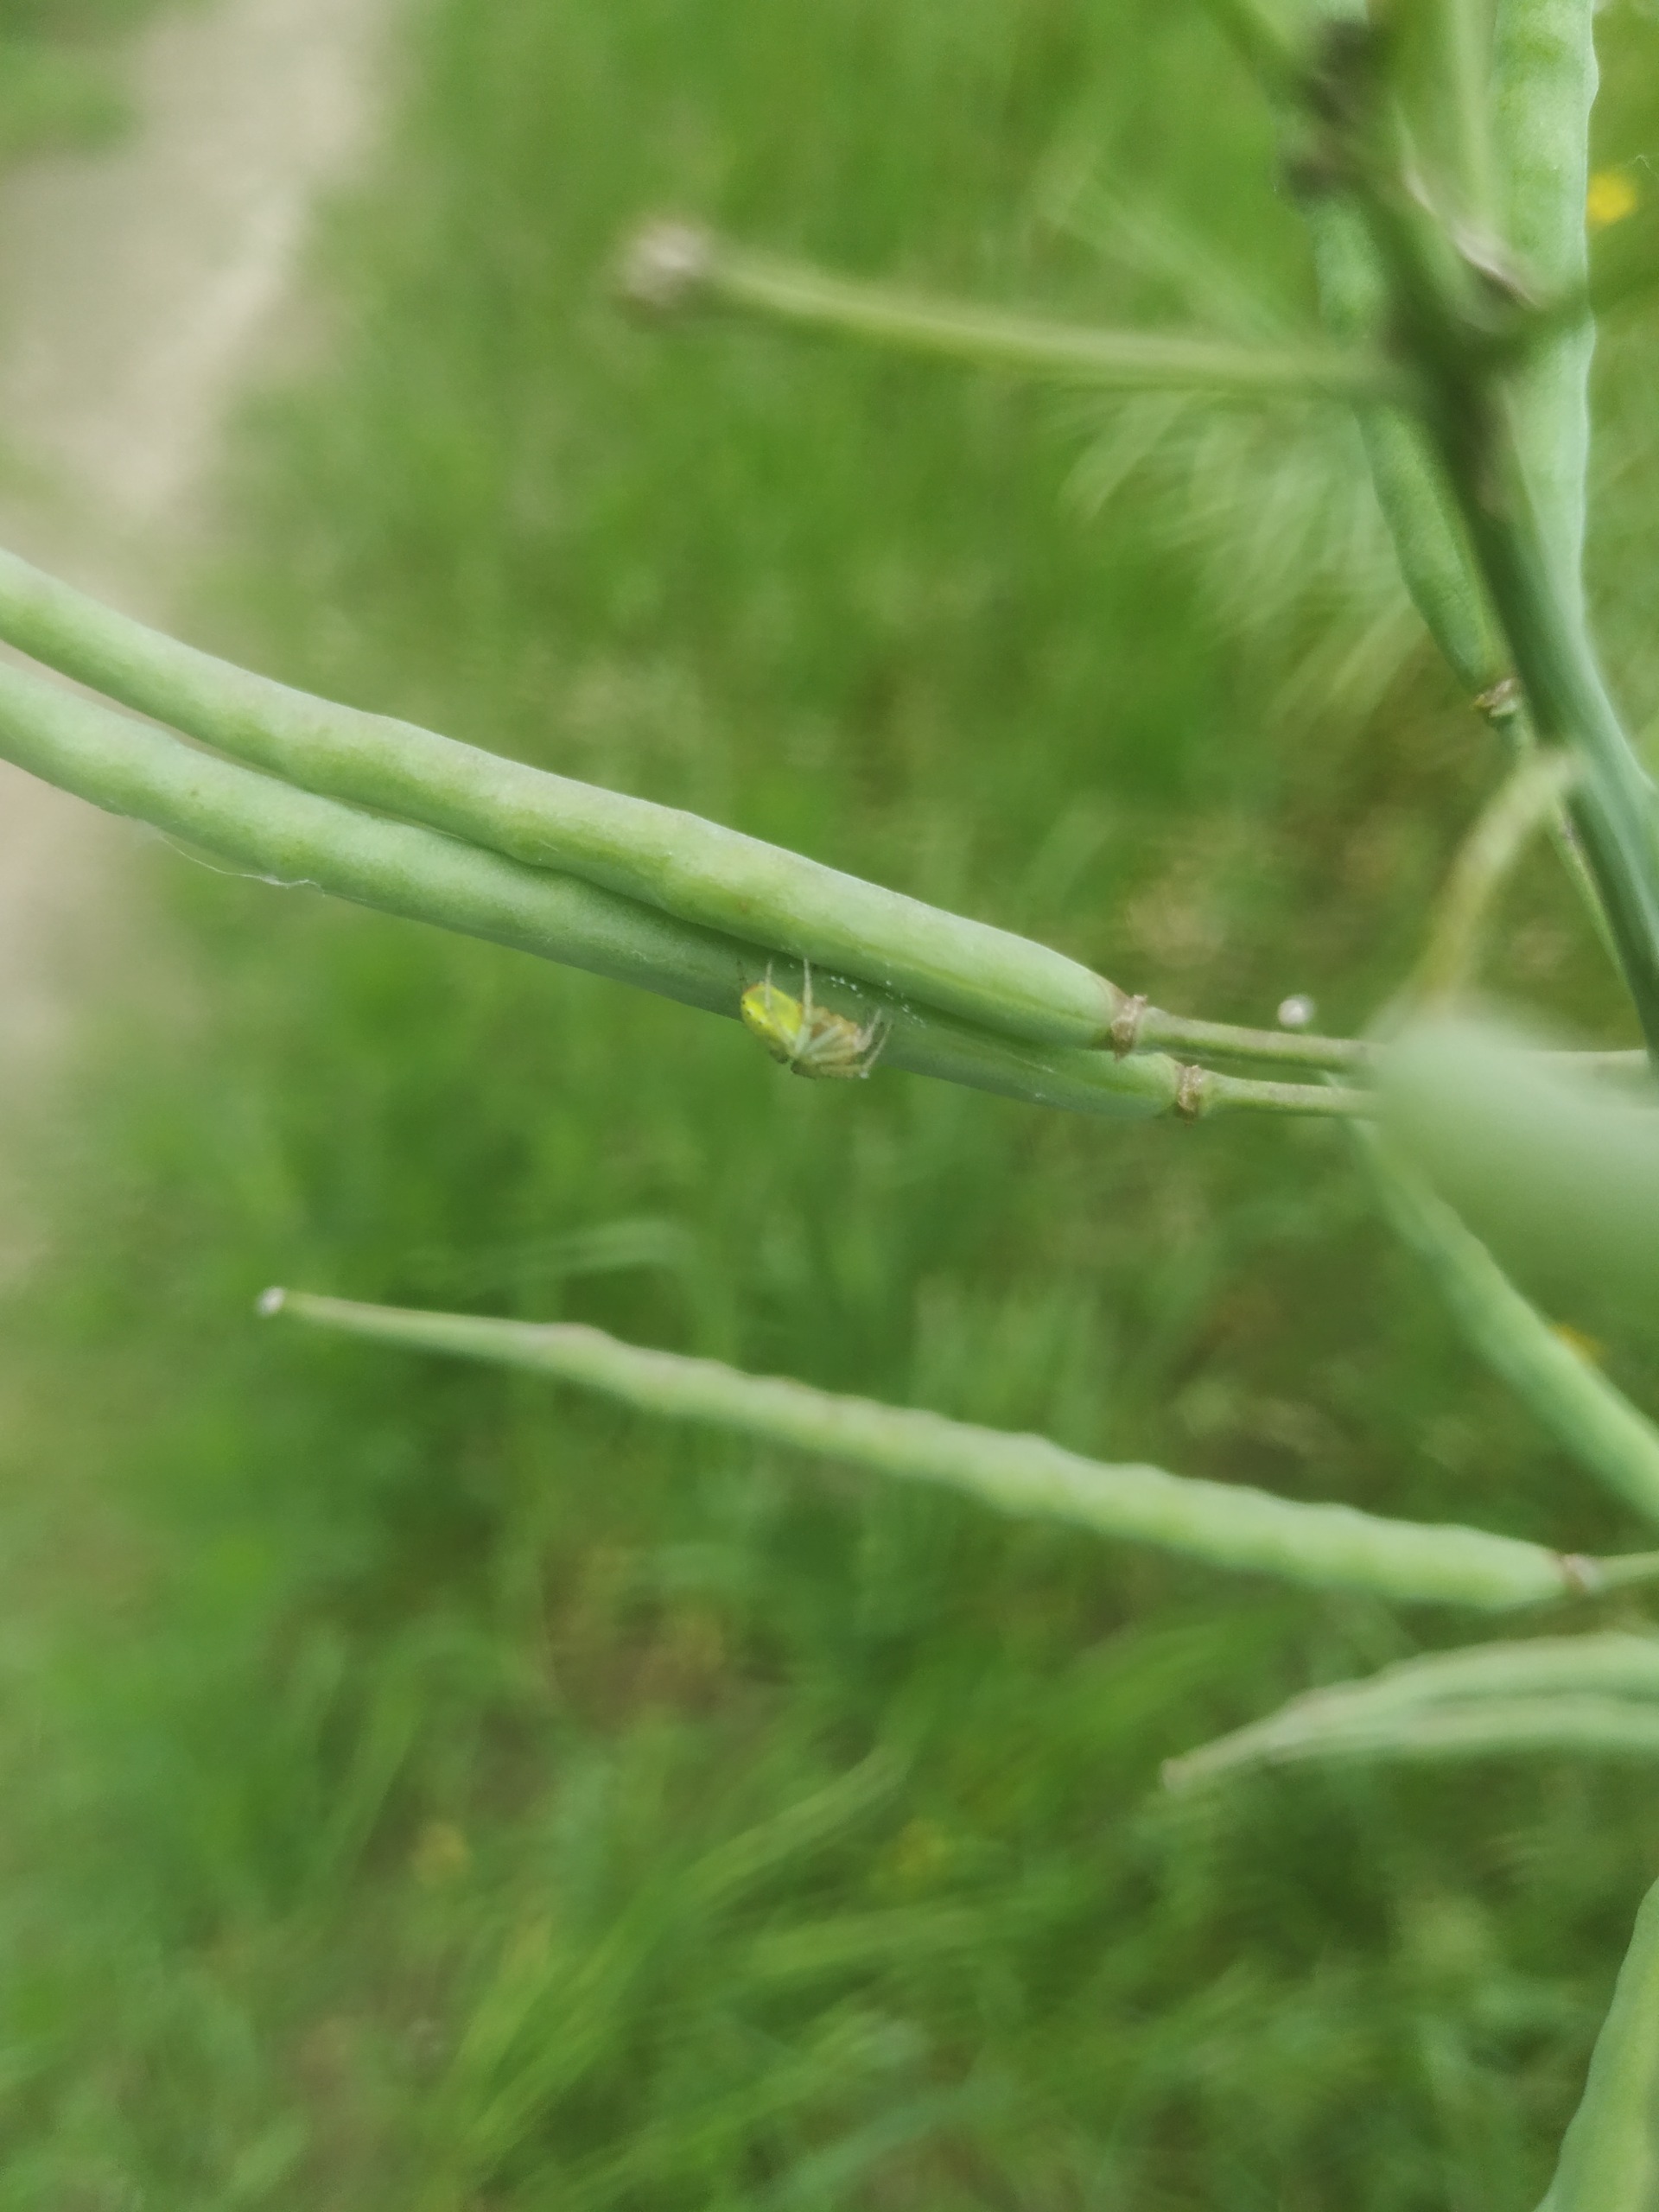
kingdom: Animalia
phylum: Arthropoda
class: Arachnida
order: Araneae
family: Araneidae
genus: Araniella
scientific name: Araniella
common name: Agurkeedderkopslægten
